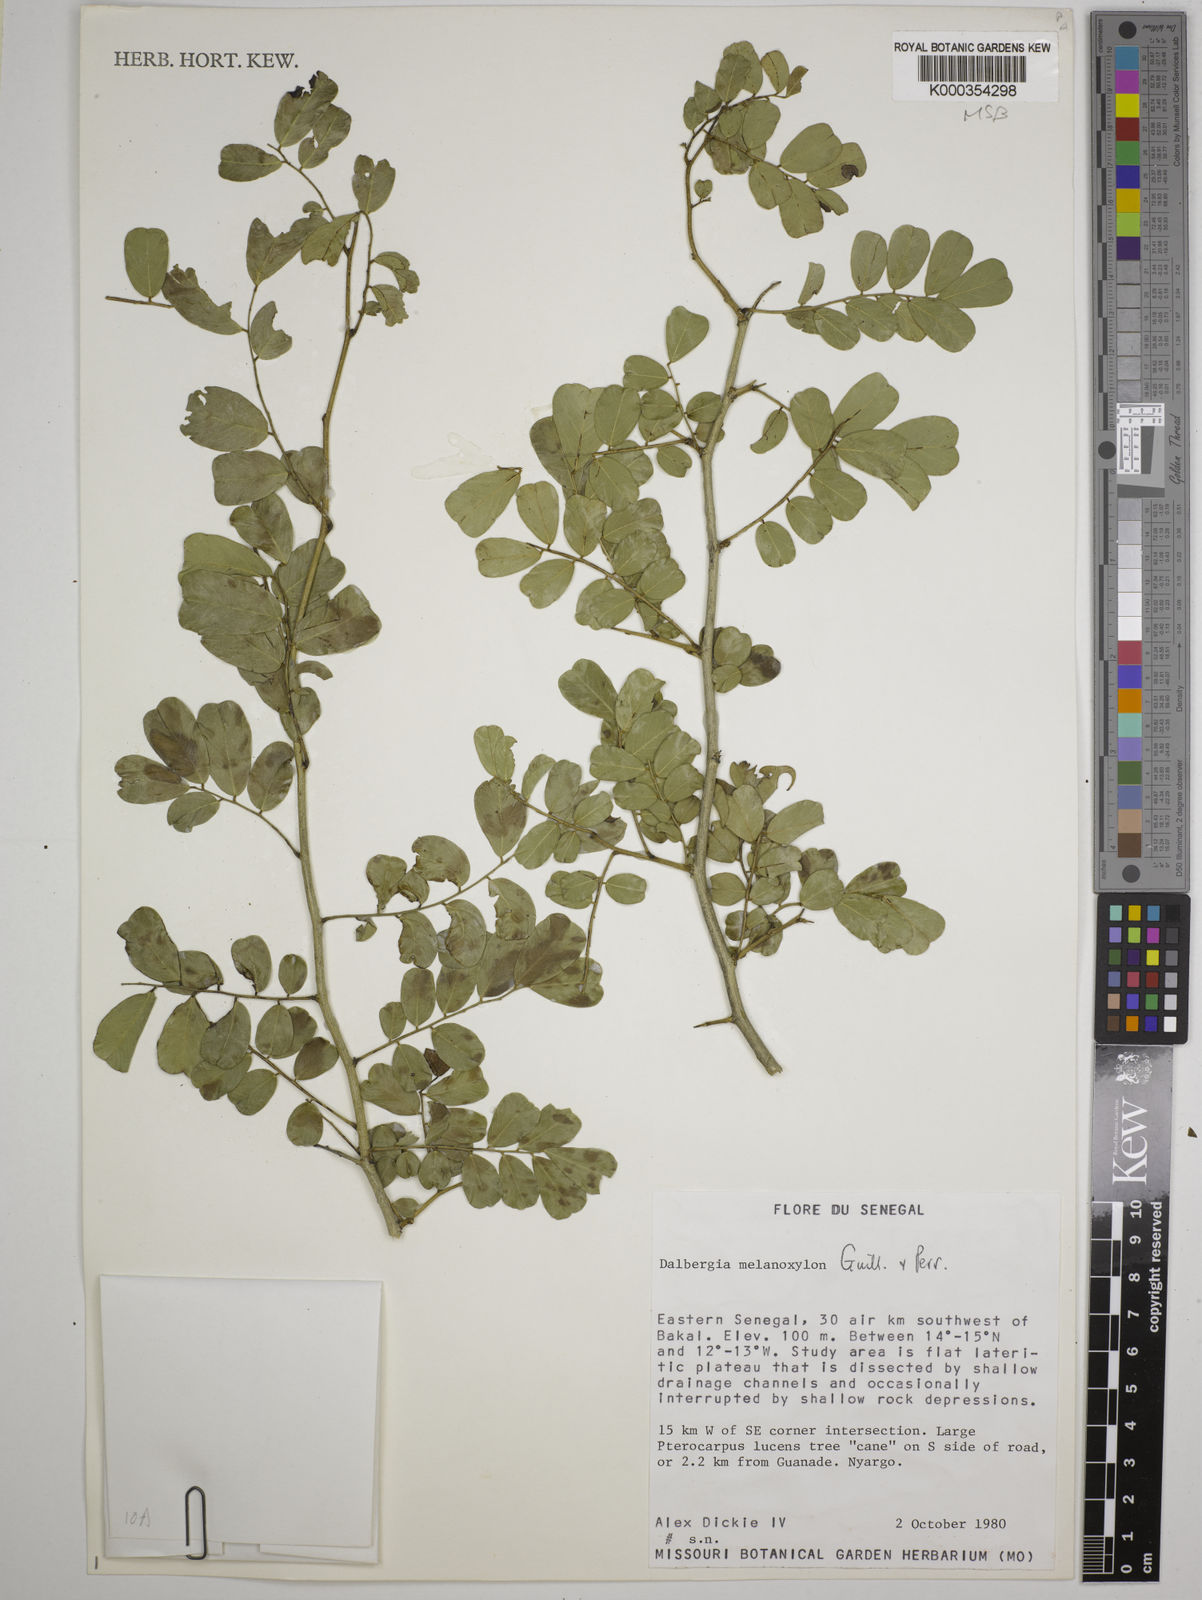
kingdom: Plantae
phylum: Tracheophyta
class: Magnoliopsida
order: Fabales
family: Fabaceae
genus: Dalbergia
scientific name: Dalbergia melanoxylon
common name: African blackwood
